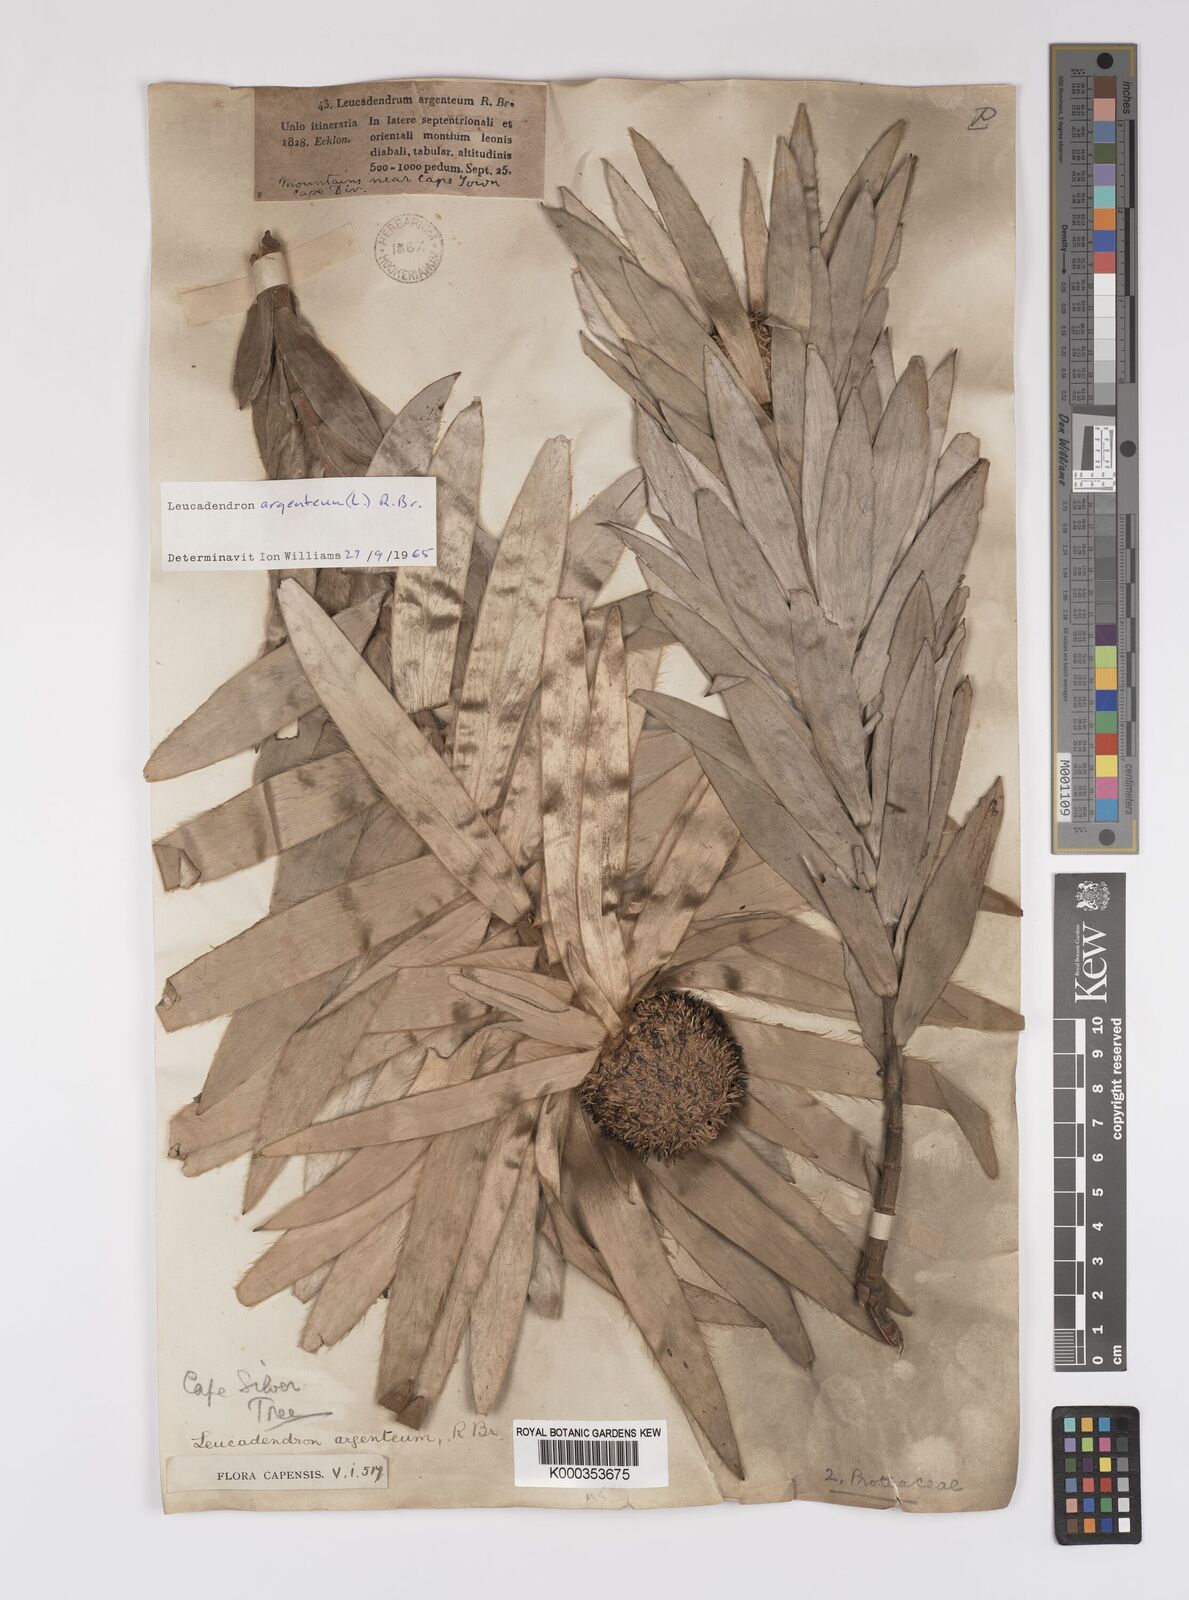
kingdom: Plantae
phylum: Tracheophyta
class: Magnoliopsida
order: Proteales
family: Proteaceae
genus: Leucadendron
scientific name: Leucadendron argenteum
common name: Cape silver tree
